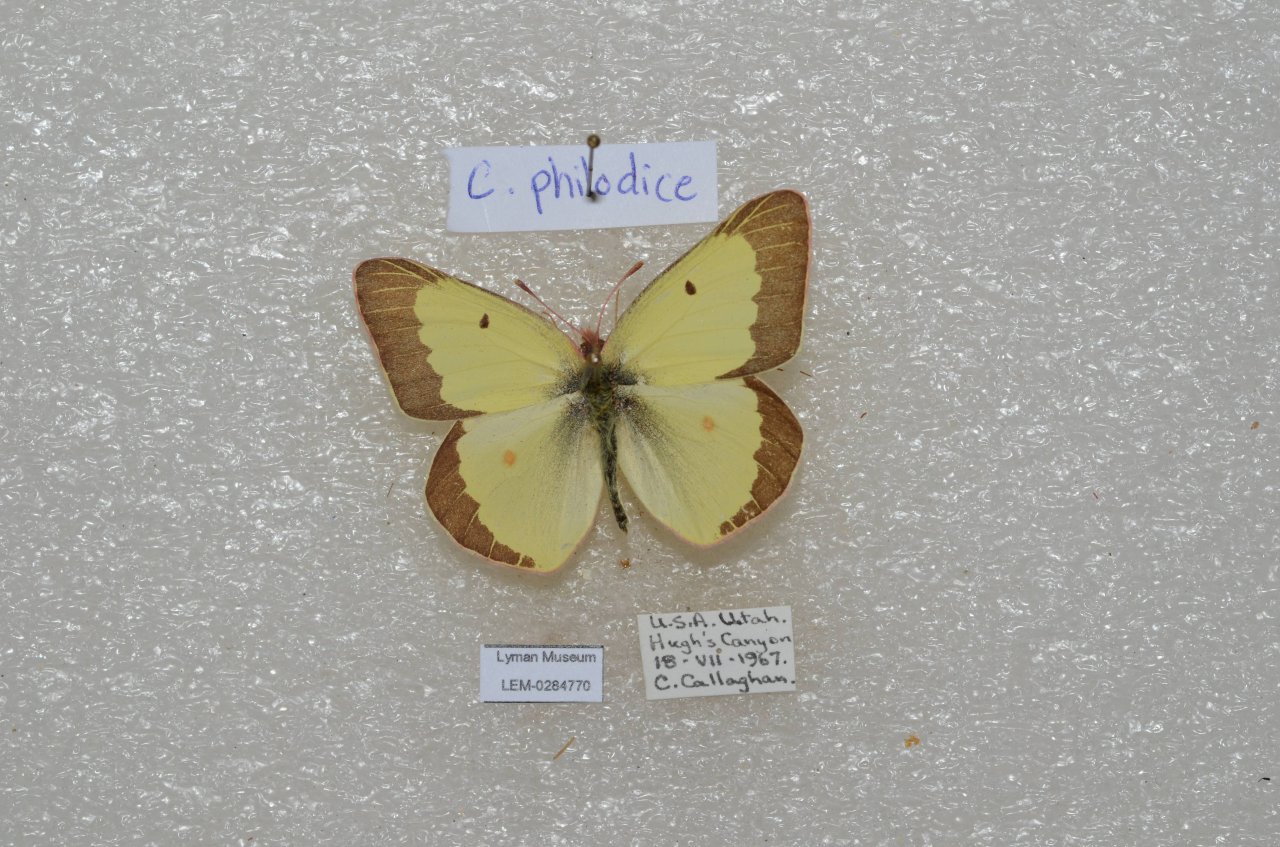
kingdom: Animalia
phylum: Arthropoda
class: Insecta
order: Lepidoptera
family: Pieridae
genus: Colias
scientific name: Colias philodice
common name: Clouded Sulphur
